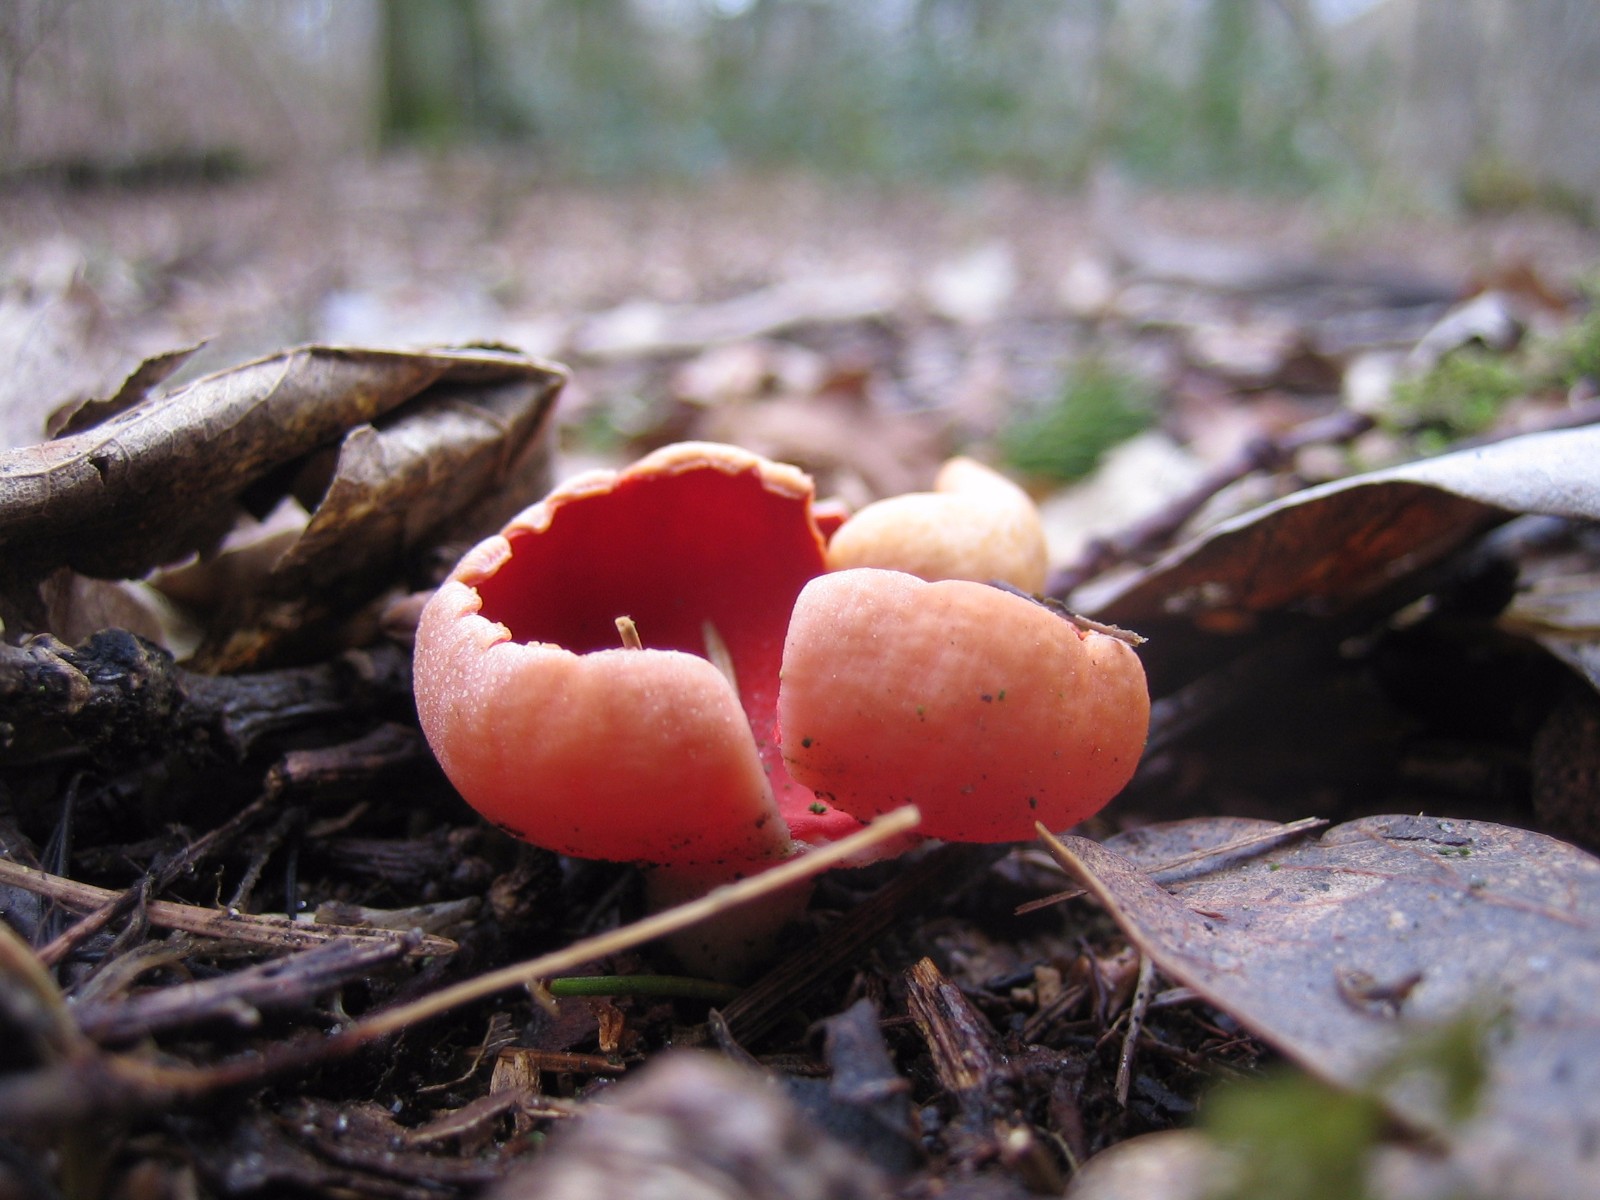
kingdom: Fungi
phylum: Ascomycota
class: Pezizomycetes
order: Pezizales
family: Sarcoscyphaceae
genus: Sarcoscypha
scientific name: Sarcoscypha austriaca
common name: krølhåret pragtbæger
